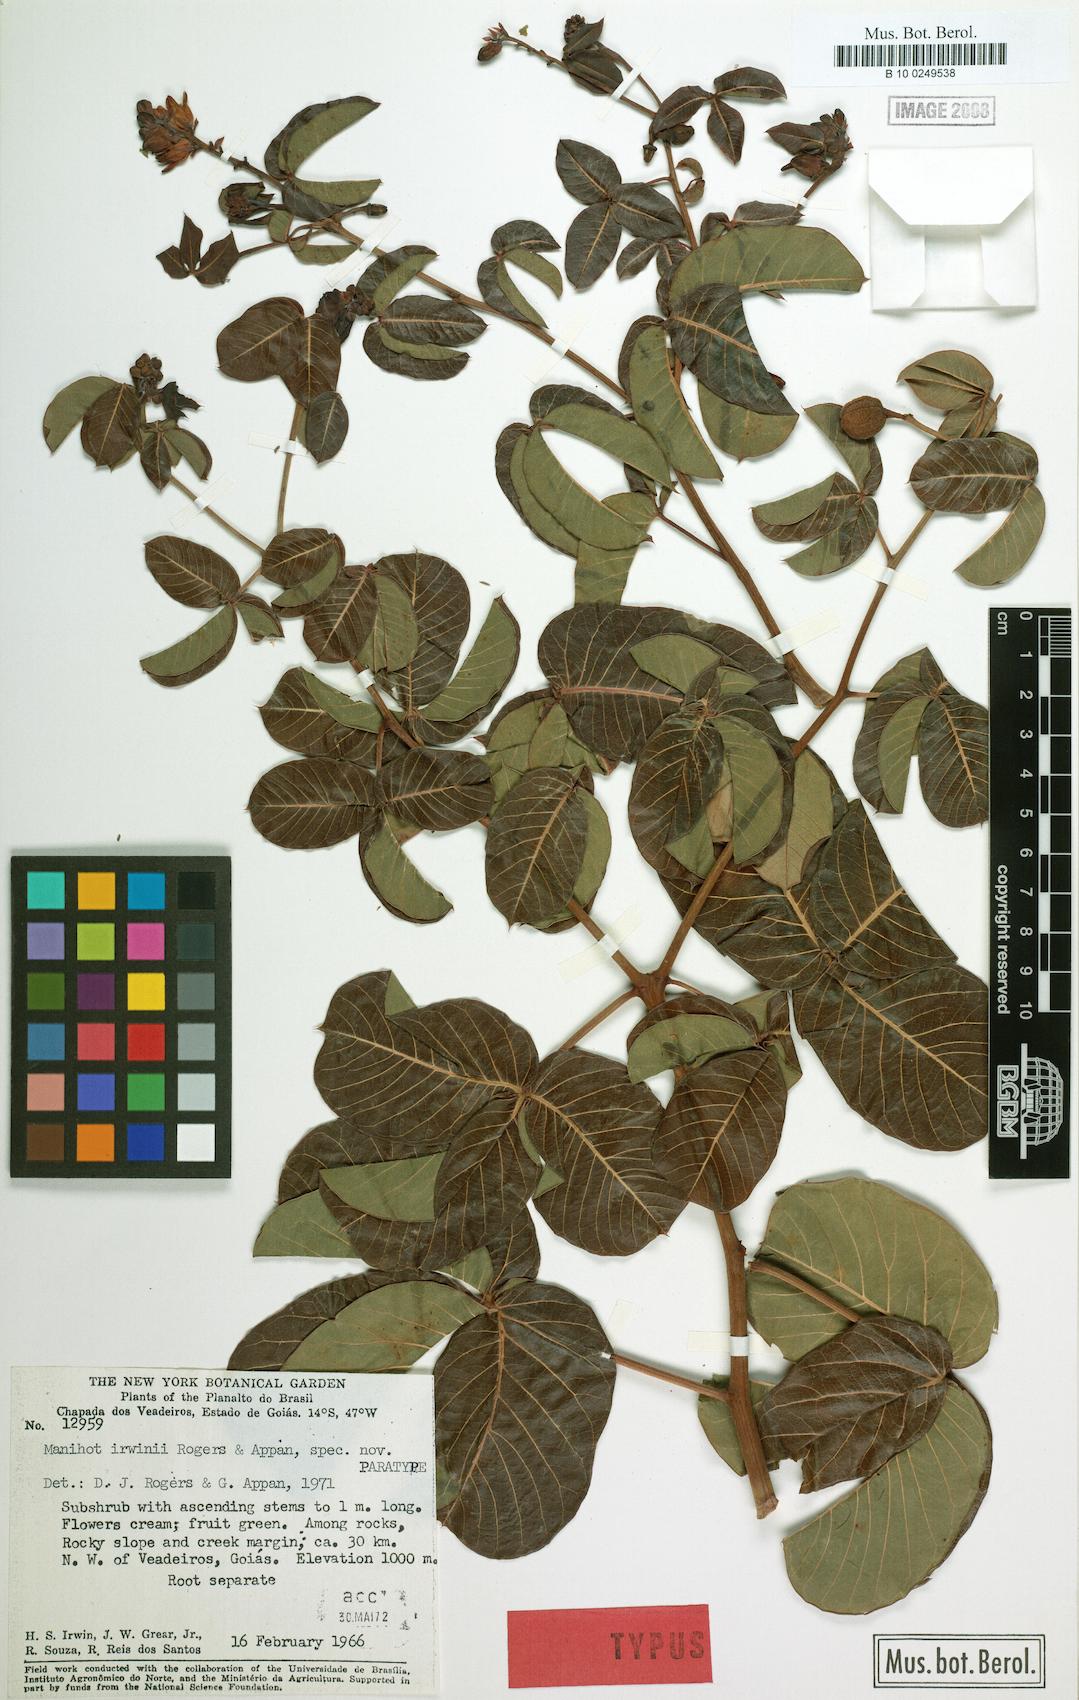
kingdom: Plantae
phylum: Tracheophyta
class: Magnoliopsida
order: Malpighiales
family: Euphorbiaceae
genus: Manihot
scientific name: Manihot irwinii
